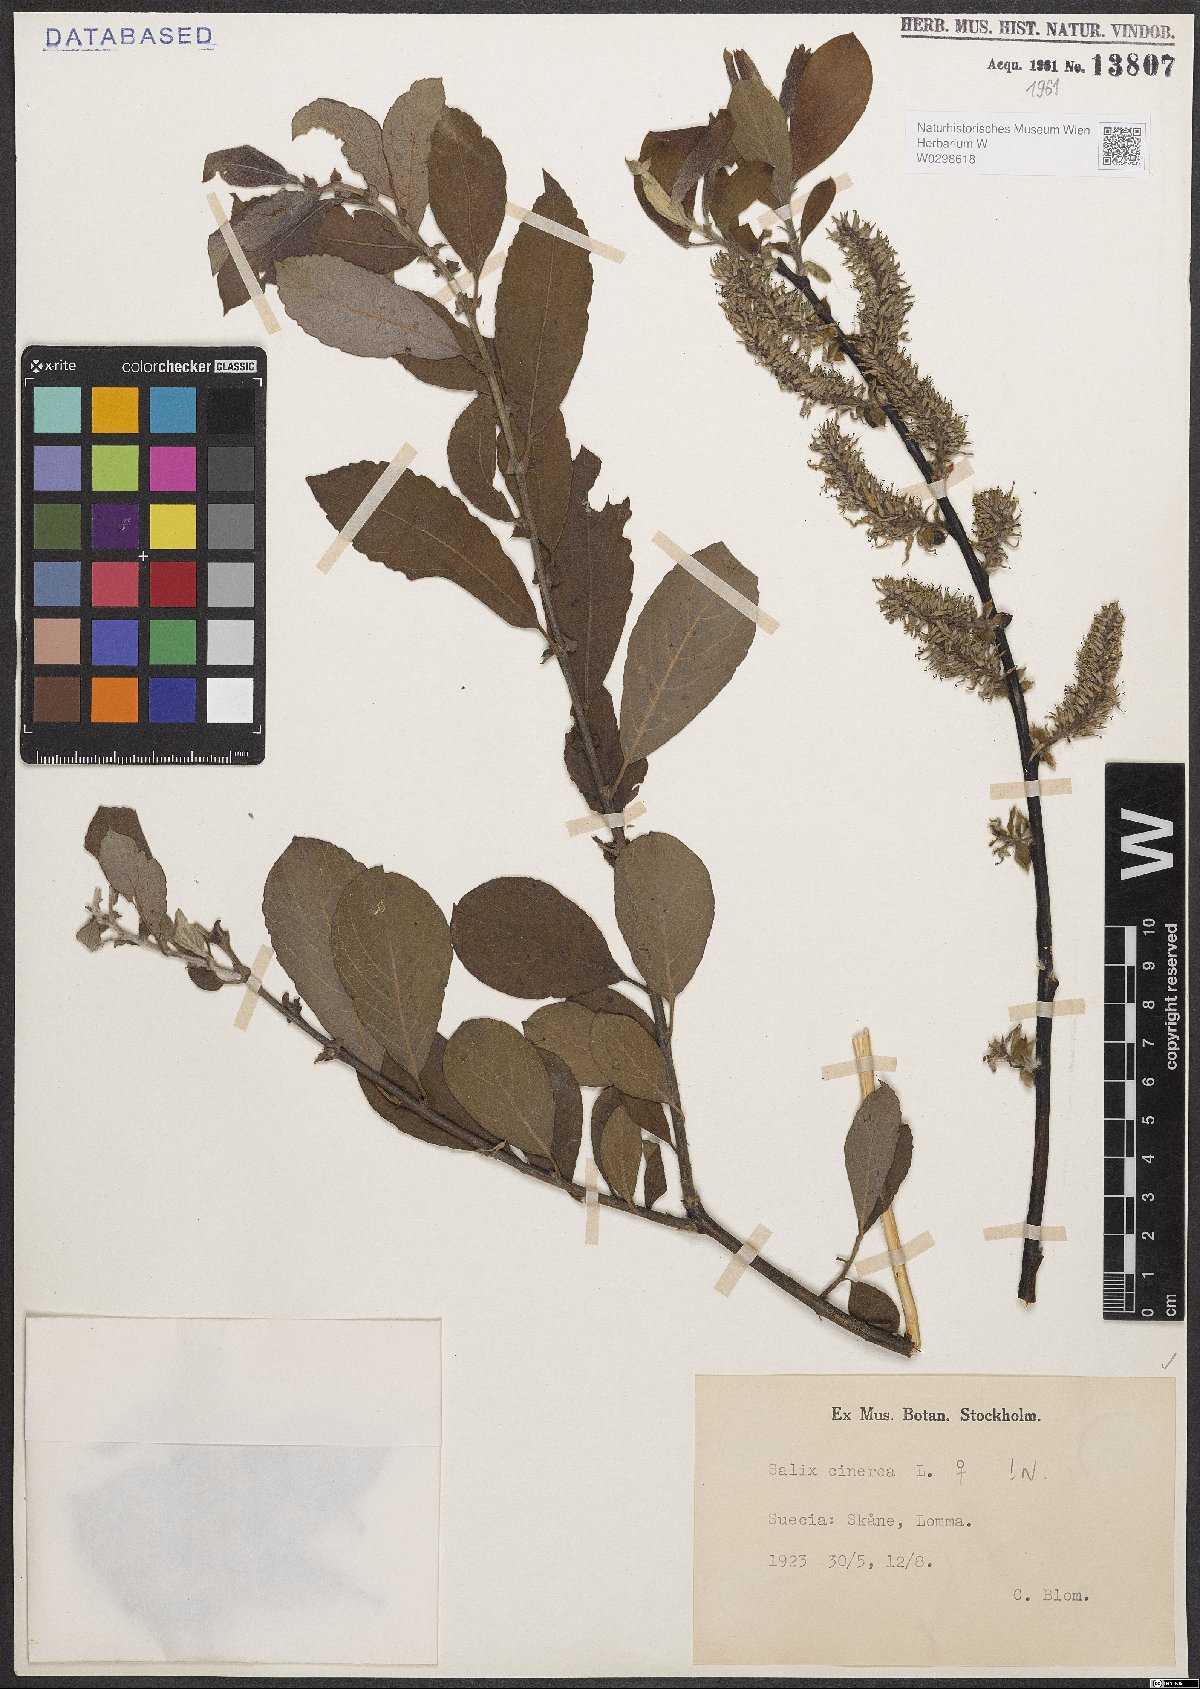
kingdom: Plantae
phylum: Tracheophyta
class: Magnoliopsida
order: Malpighiales
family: Salicaceae
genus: Salix
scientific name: Salix cinerea
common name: Common sallow
